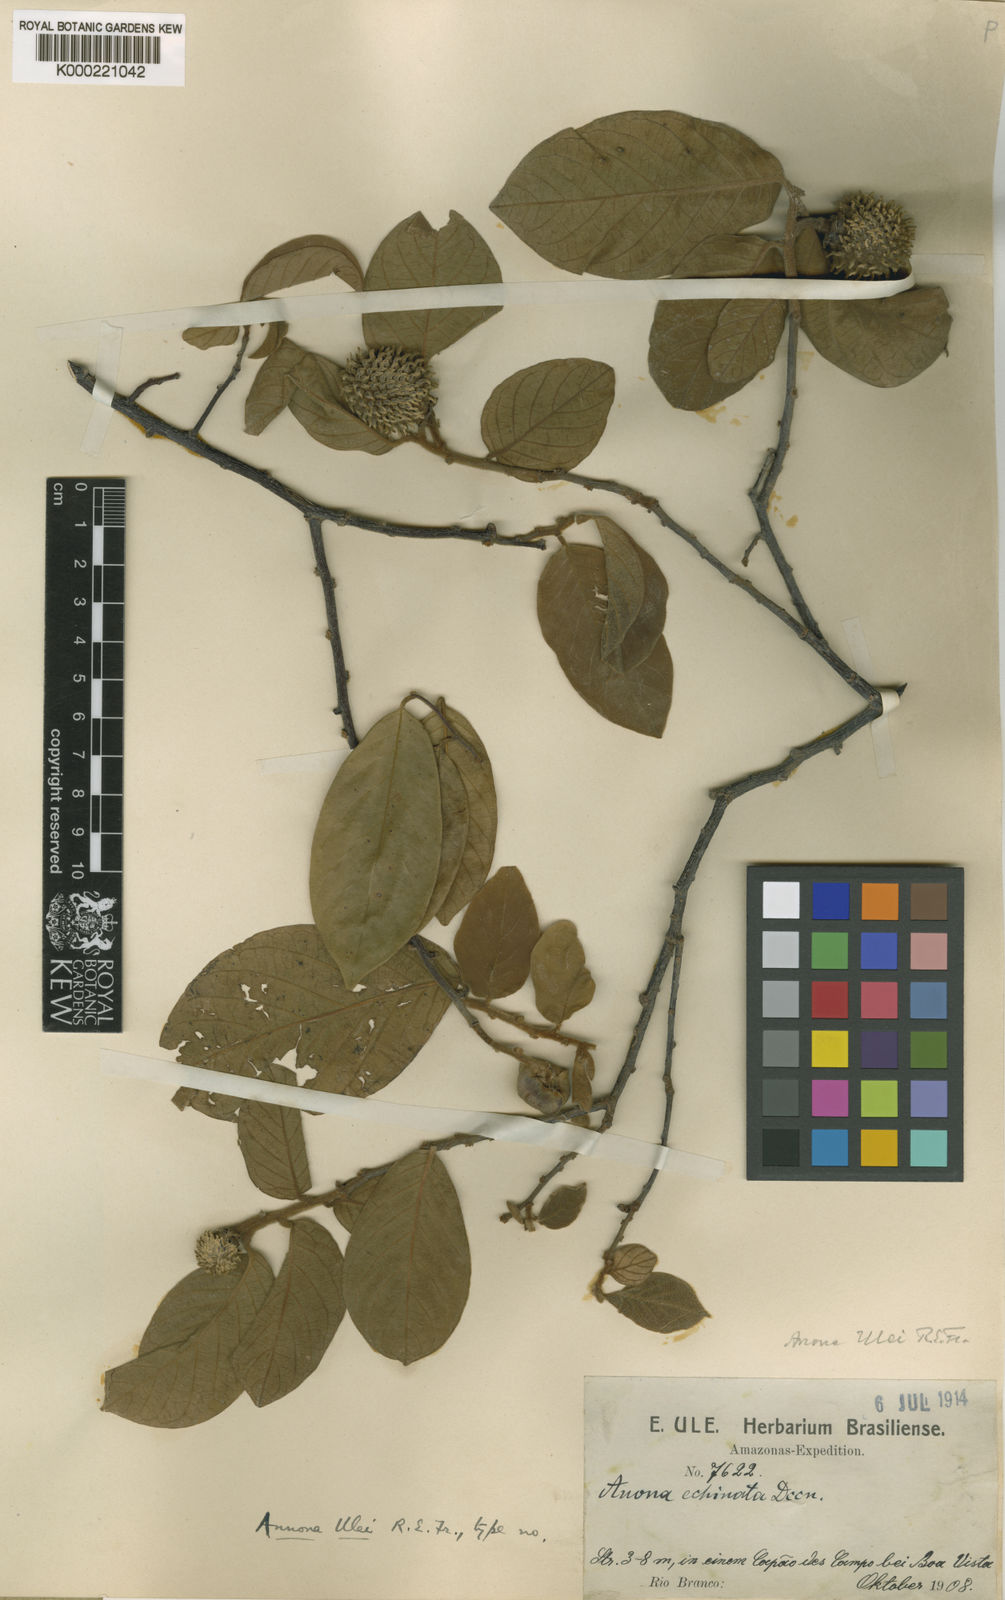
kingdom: Plantae
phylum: Tracheophyta
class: Magnoliopsida
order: Magnoliales
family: Annonaceae
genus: Annona
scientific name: Annona jahnii
